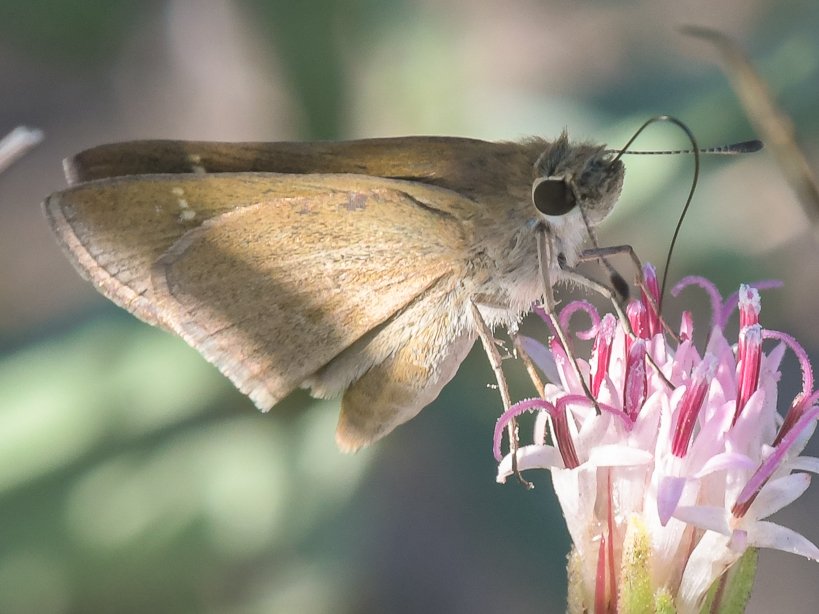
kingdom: Animalia
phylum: Arthropoda
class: Insecta
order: Lepidoptera
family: Hesperiidae
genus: Lerodea
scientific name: Lerodea eufala
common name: Eufala Skipper
